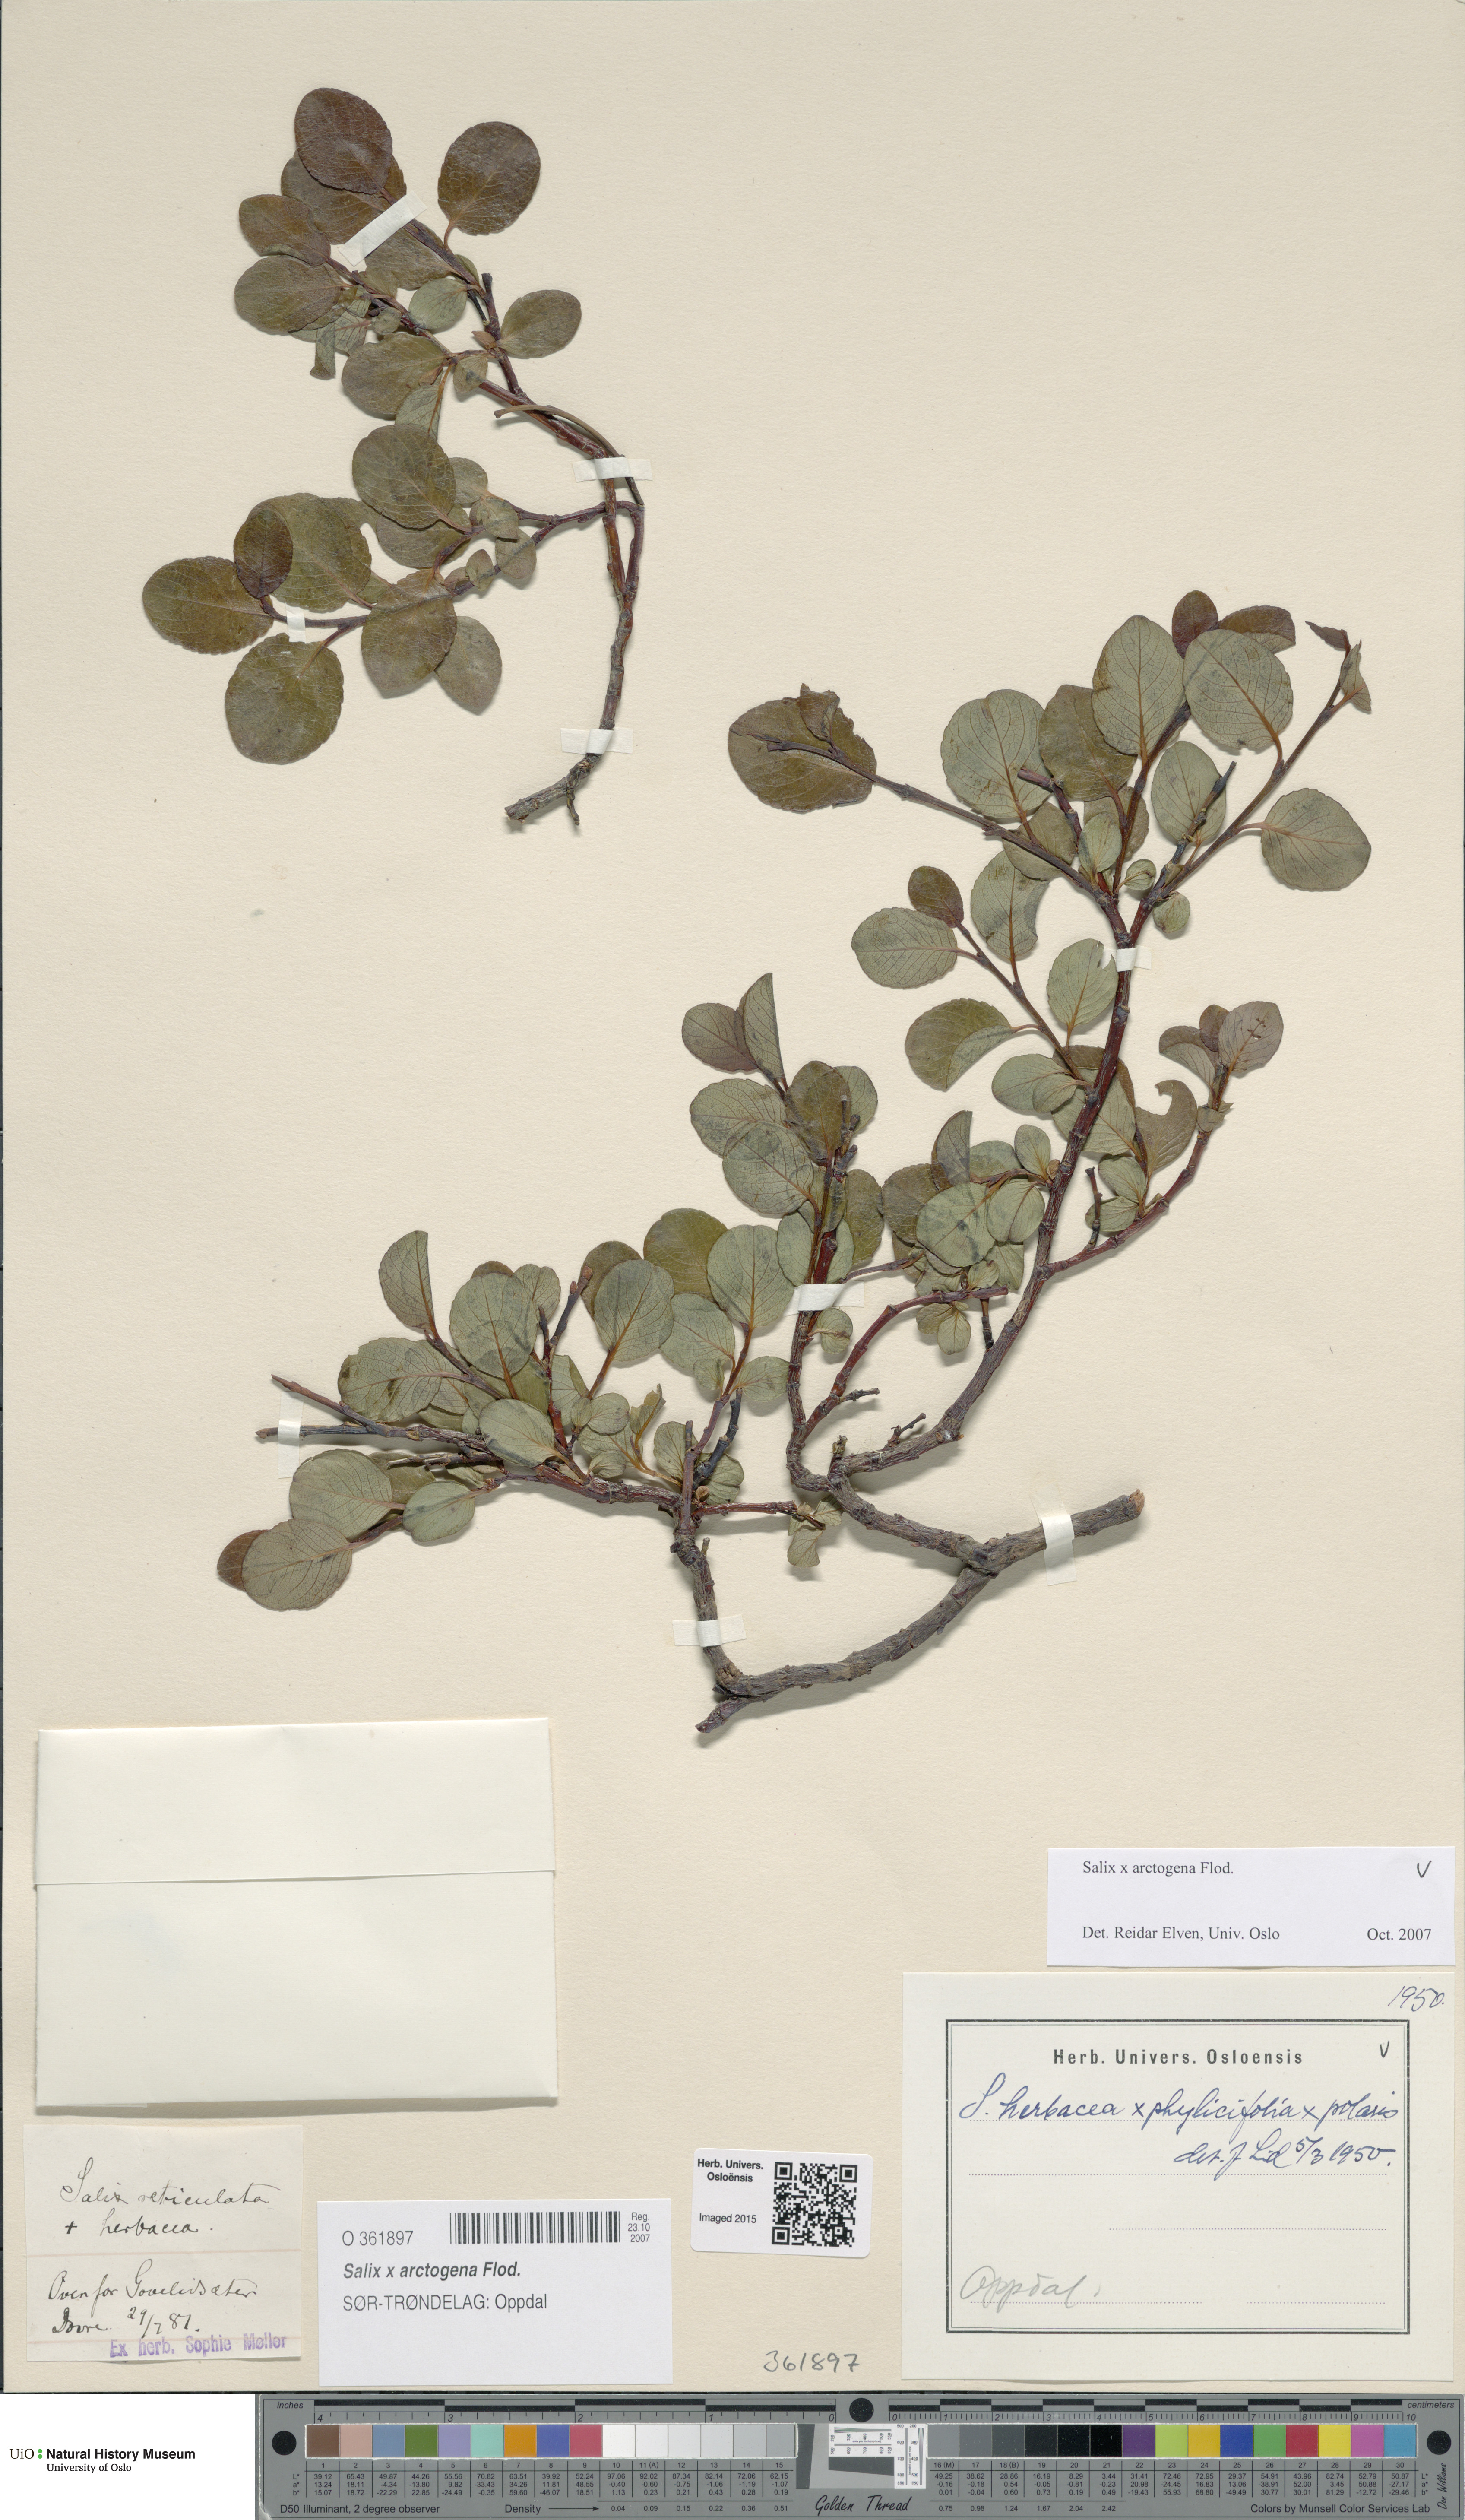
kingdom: Plantae
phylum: Tracheophyta
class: Magnoliopsida
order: Malpighiales
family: Salicaceae
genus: Salix
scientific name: Salix arctogena
